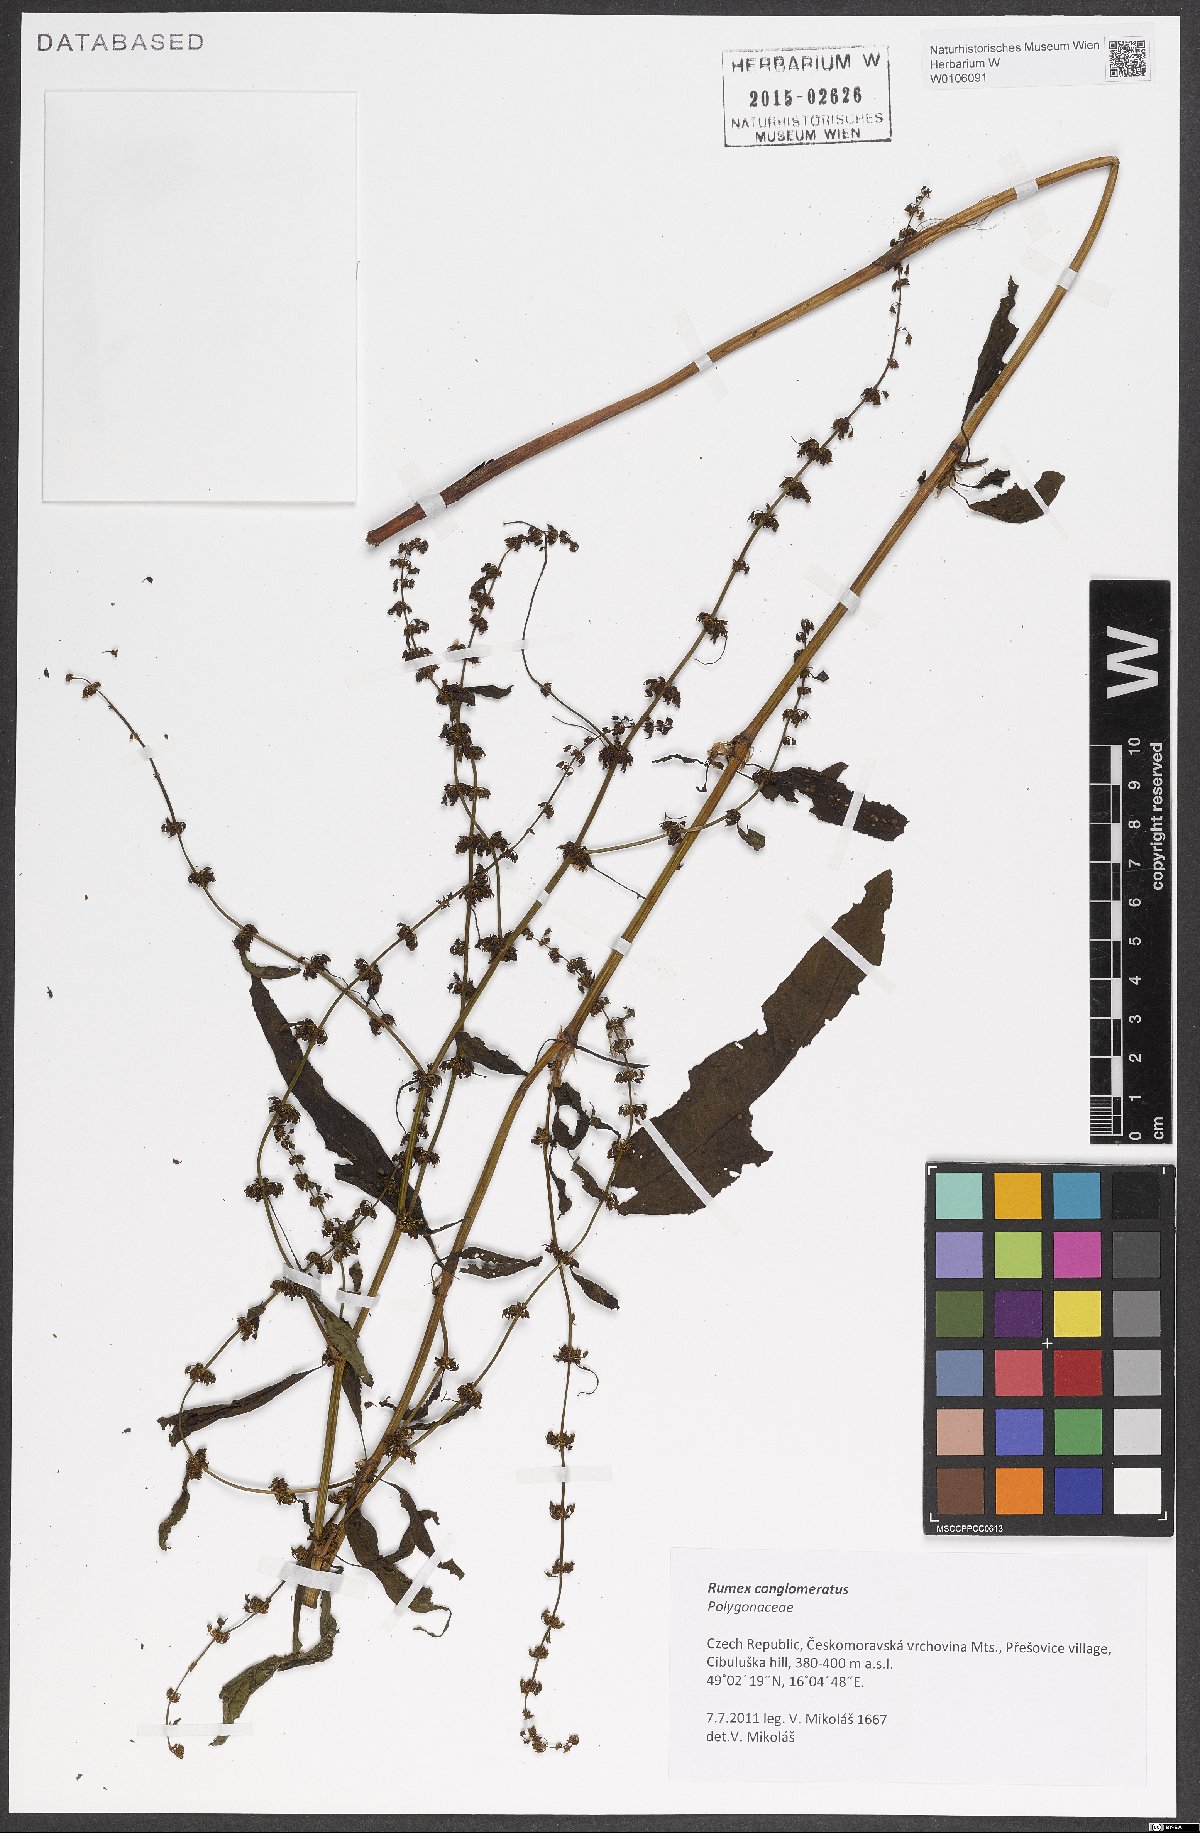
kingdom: Plantae
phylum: Tracheophyta
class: Magnoliopsida
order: Caryophyllales
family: Polygonaceae
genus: Rumex
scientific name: Rumex conglomeratus
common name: Clustered dock
